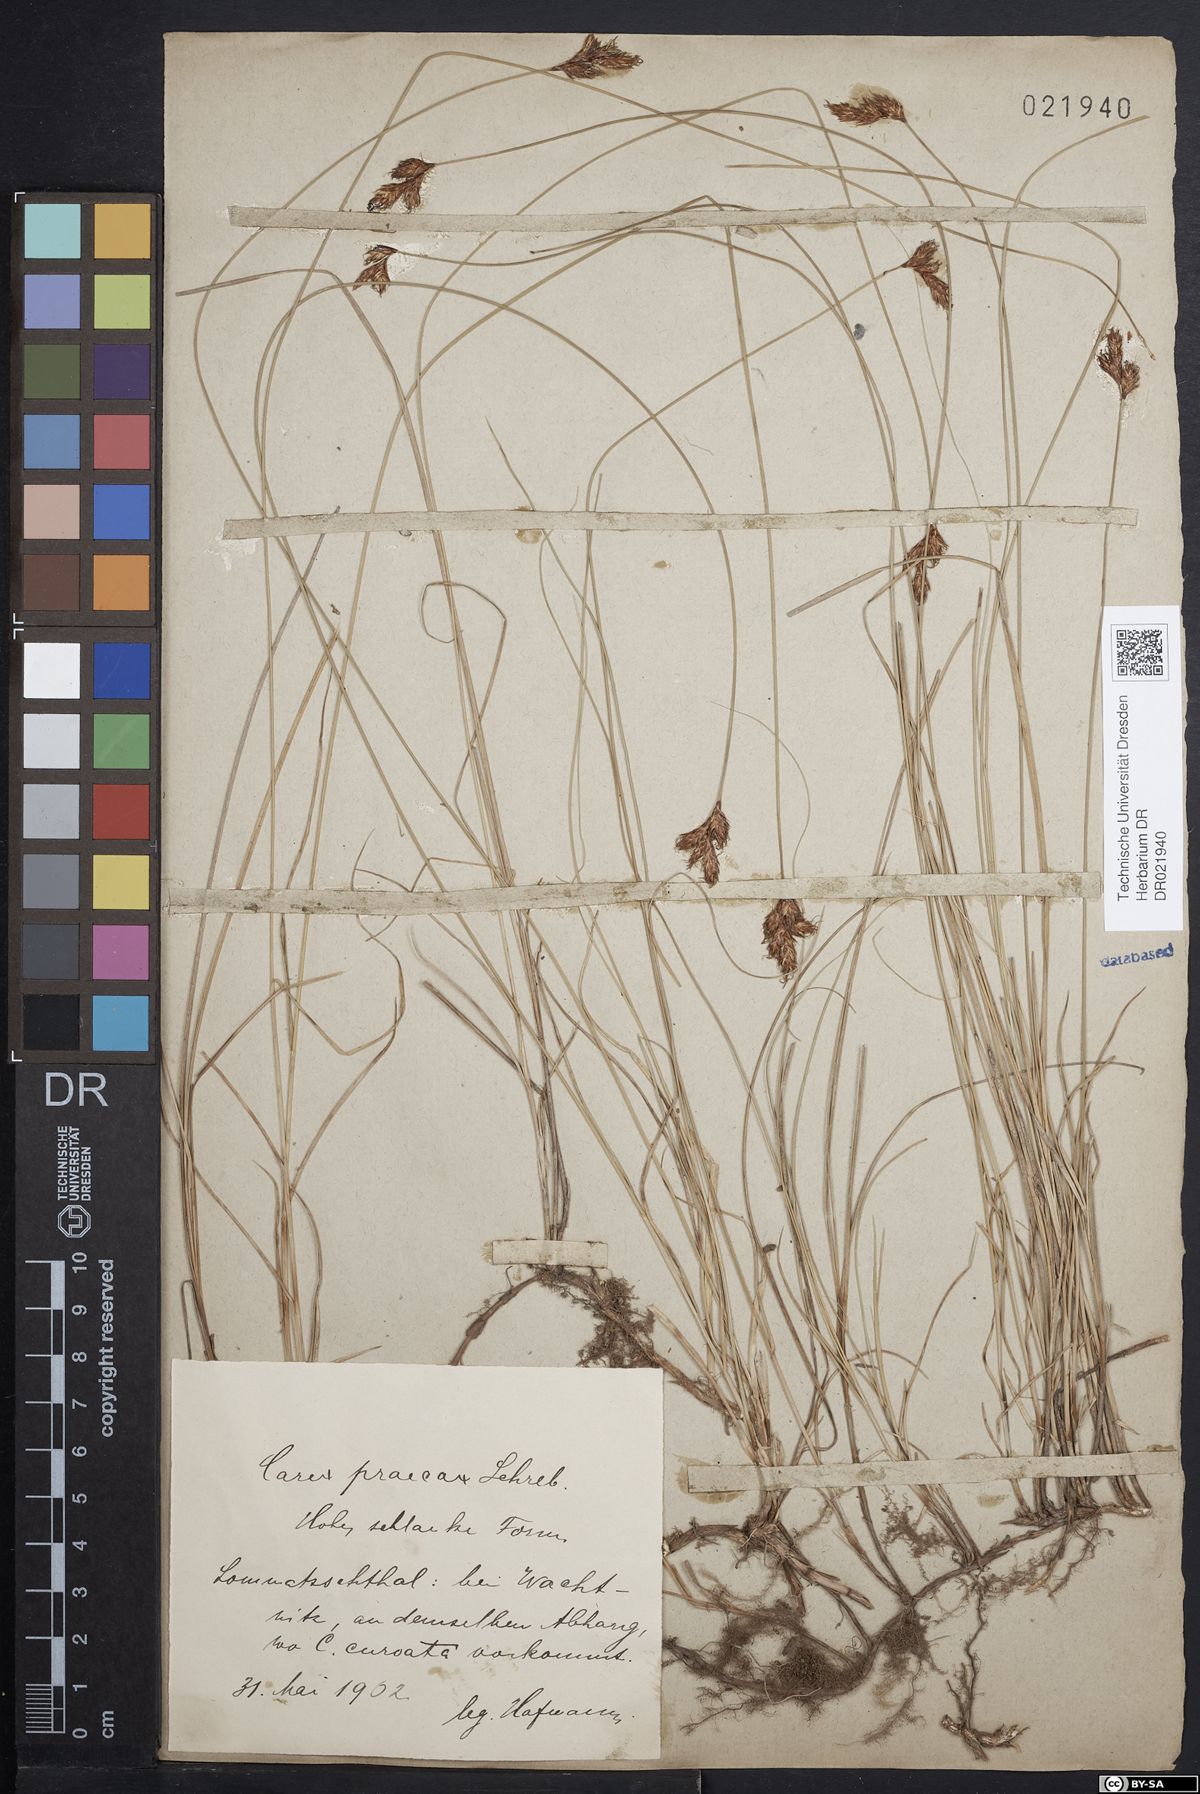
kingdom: Plantae
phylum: Tracheophyta
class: Liliopsida
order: Poales
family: Cyperaceae
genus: Carex
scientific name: Carex praecox
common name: Early sedge
